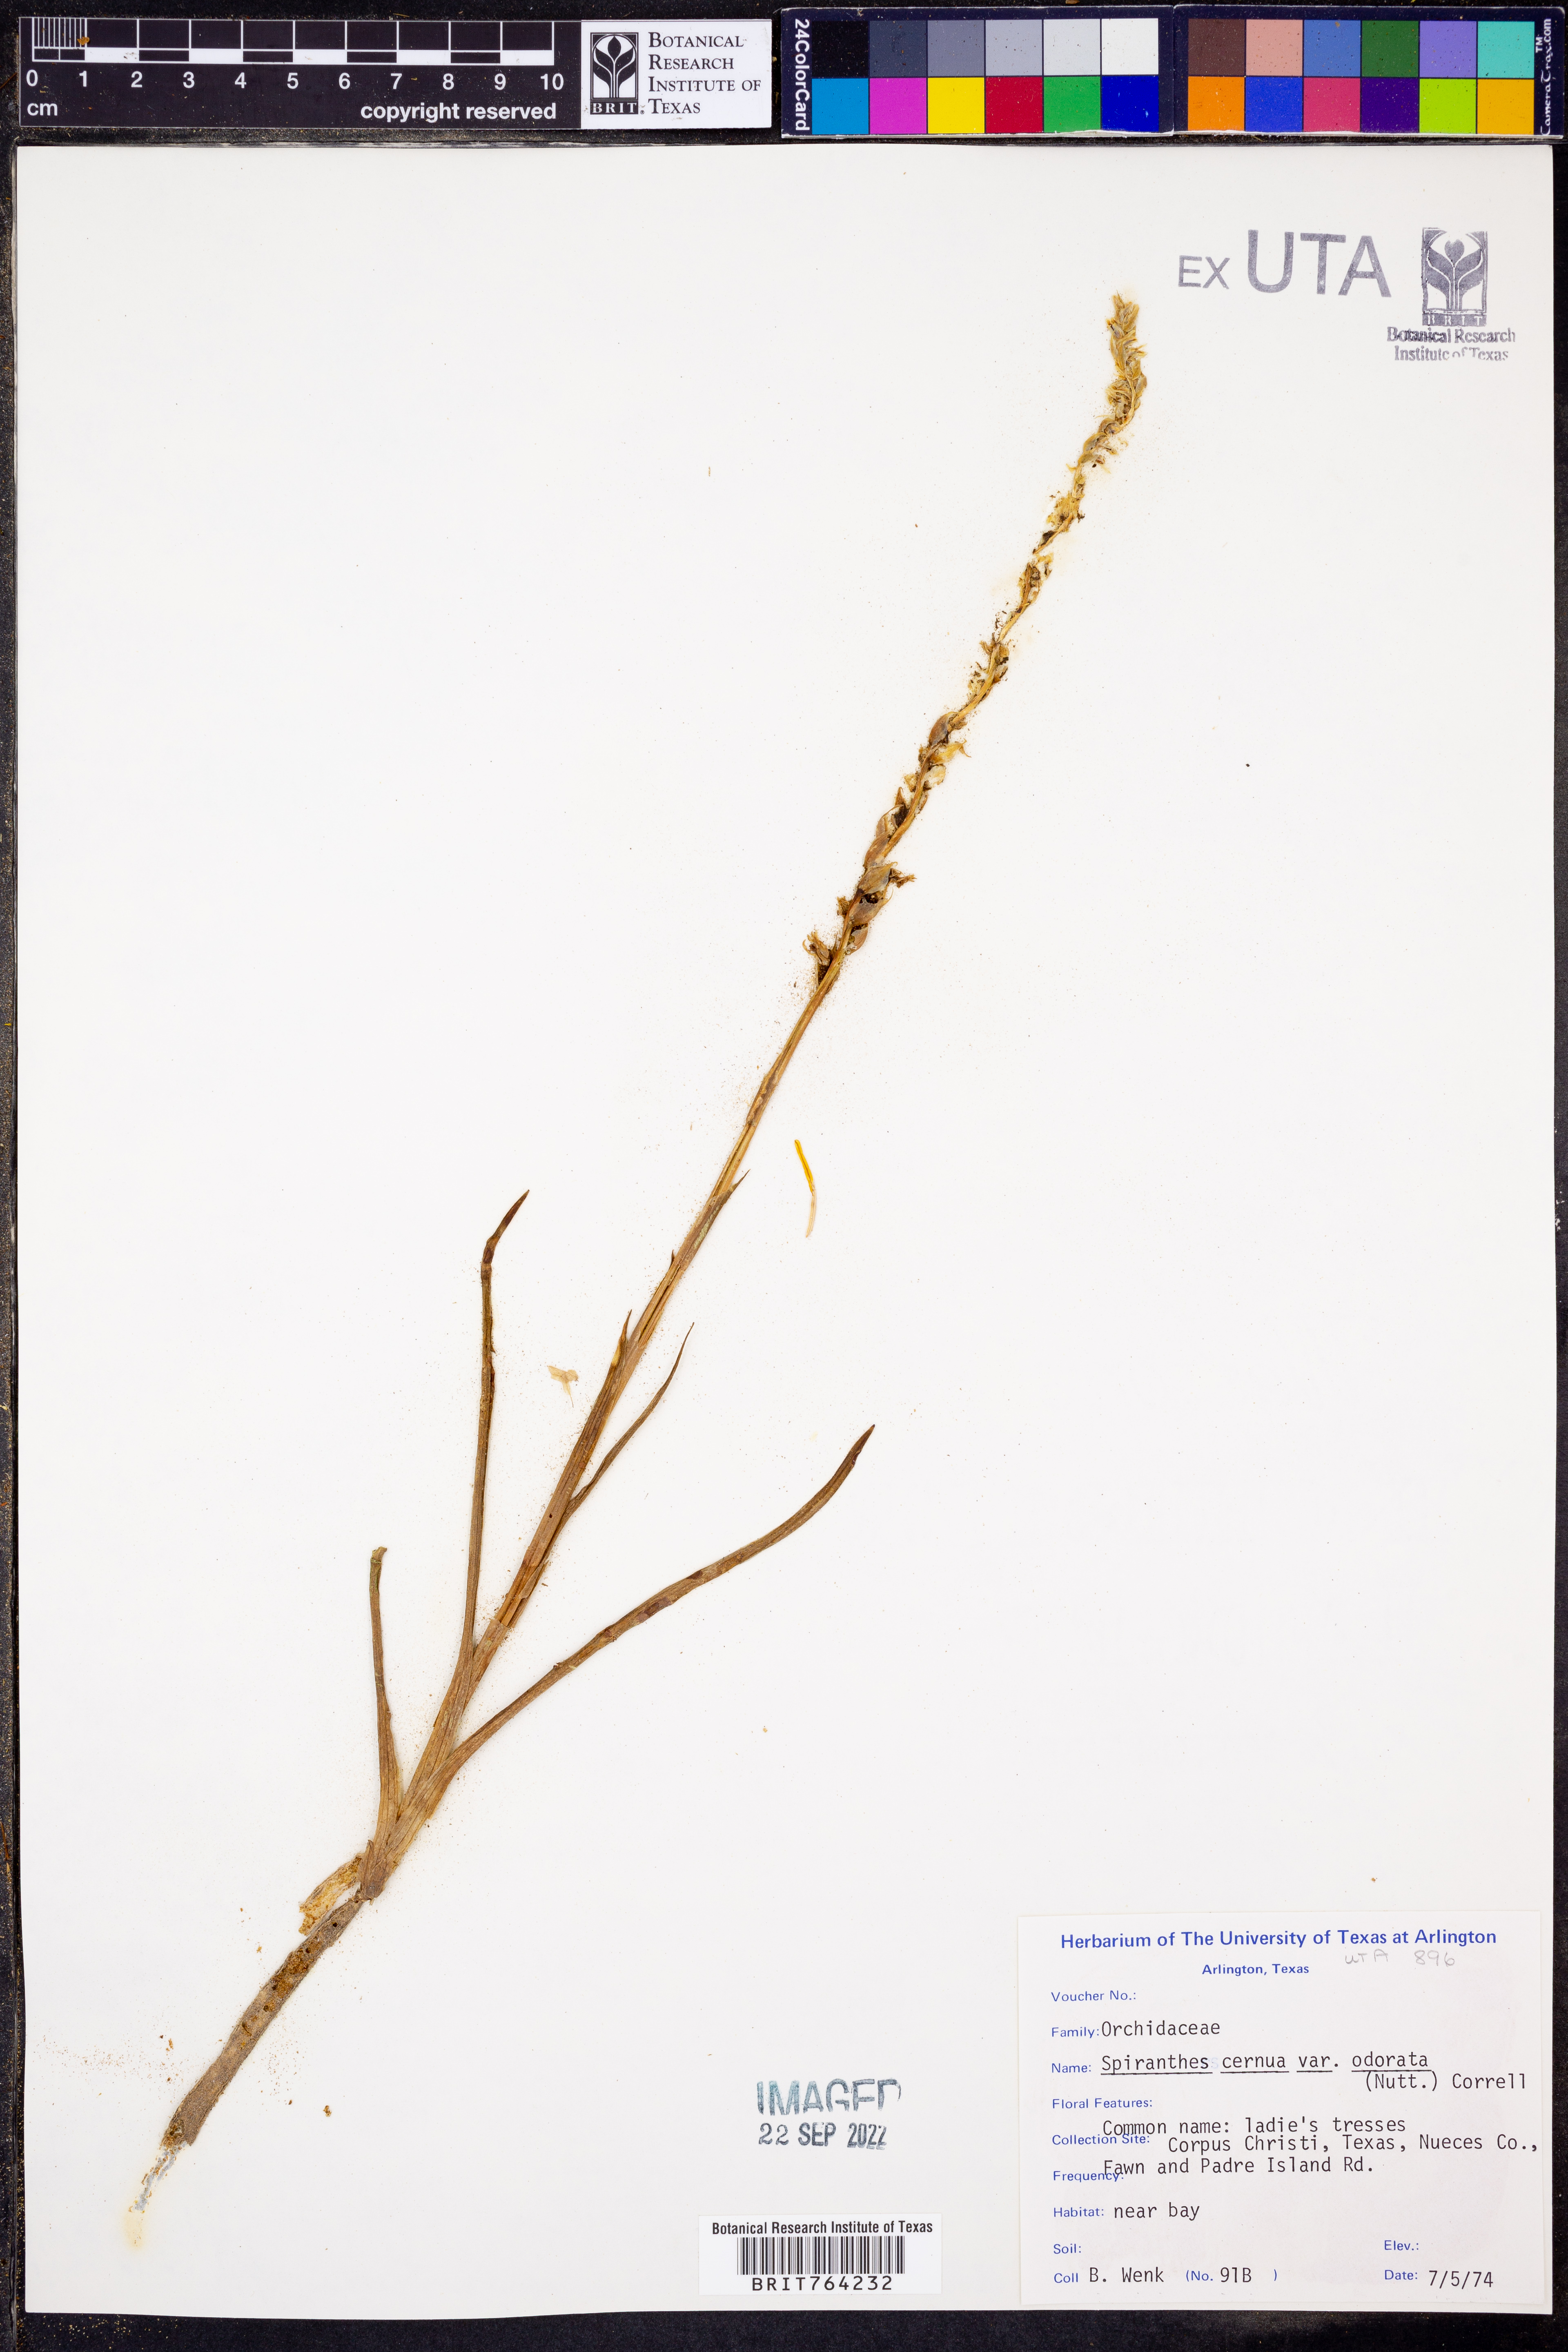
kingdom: Plantae
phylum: Tracheophyta
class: Liliopsida
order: Asparagales
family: Orchidaceae
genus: Spiranthes
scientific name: Spiranthes odorata
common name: Marsh ladies'-tresses
